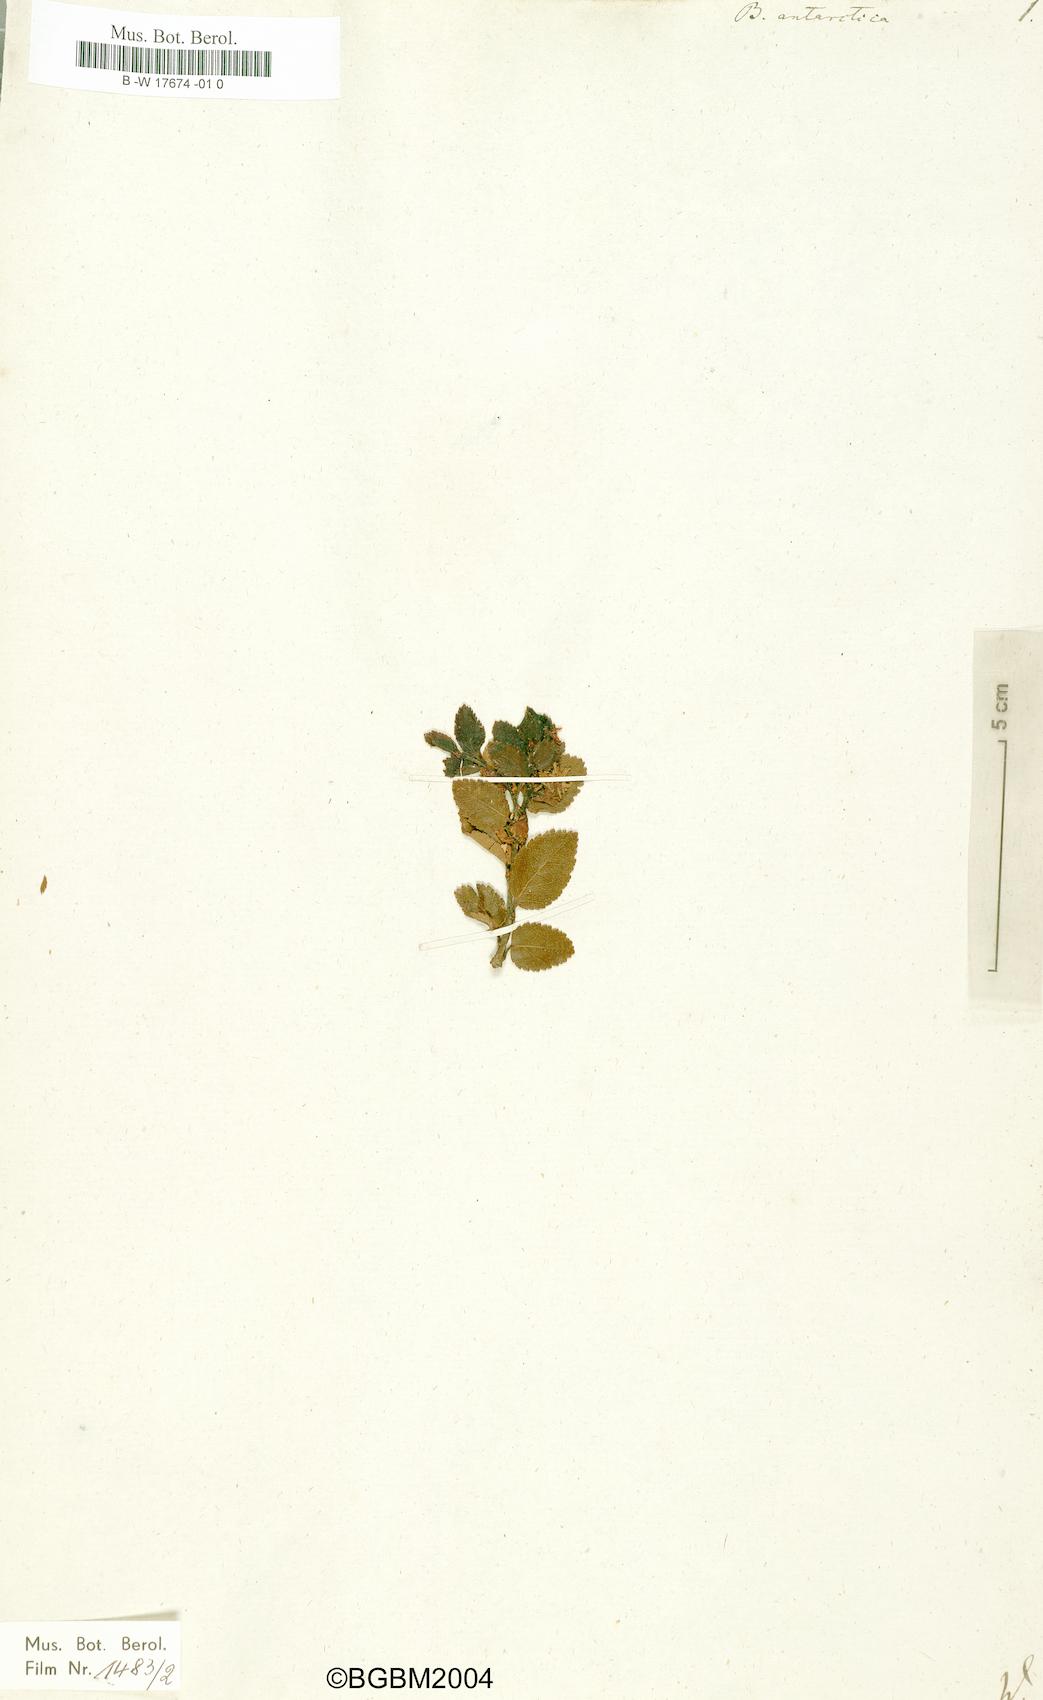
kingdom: Plantae
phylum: Tracheophyta
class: Magnoliopsida
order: Fagales
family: Nothofagaceae
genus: Nothofagus
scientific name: Nothofagus betuloides
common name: Magellan's beech
